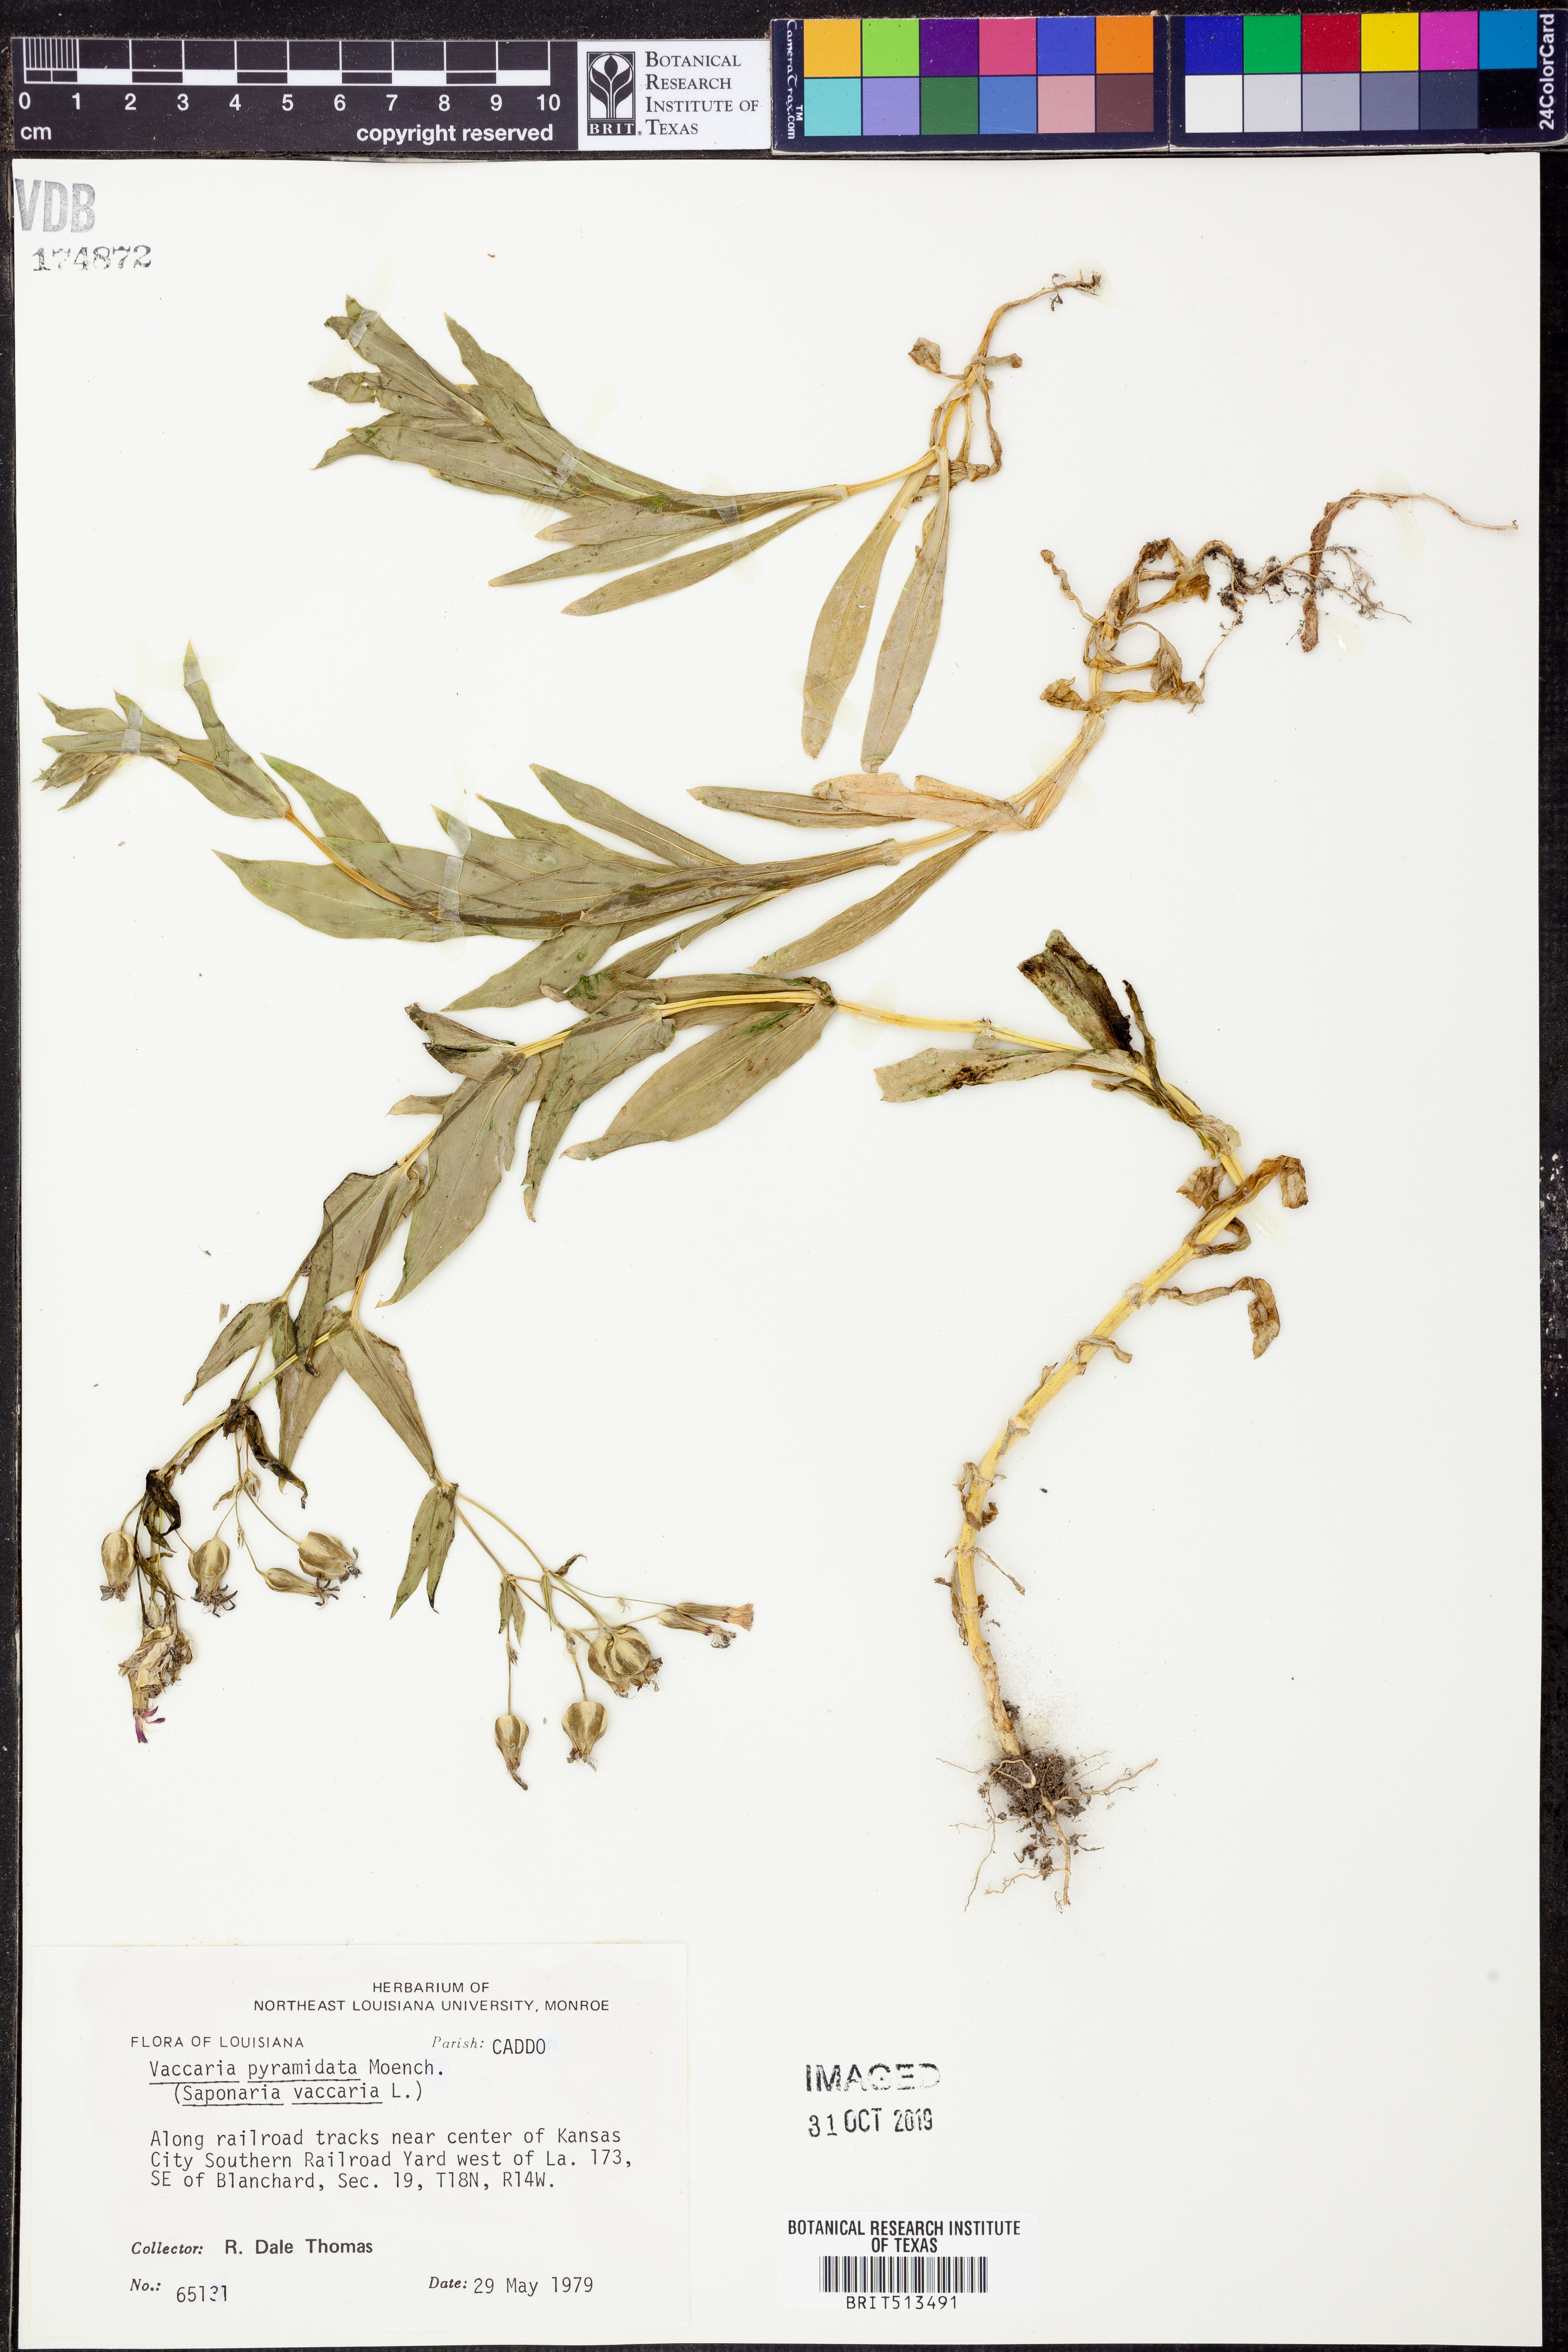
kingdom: Plantae
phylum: Tracheophyta
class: Magnoliopsida
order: Caryophyllales
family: Caryophyllaceae
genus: Gypsophila
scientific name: Gypsophila vaccaria
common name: Cow soapwort
